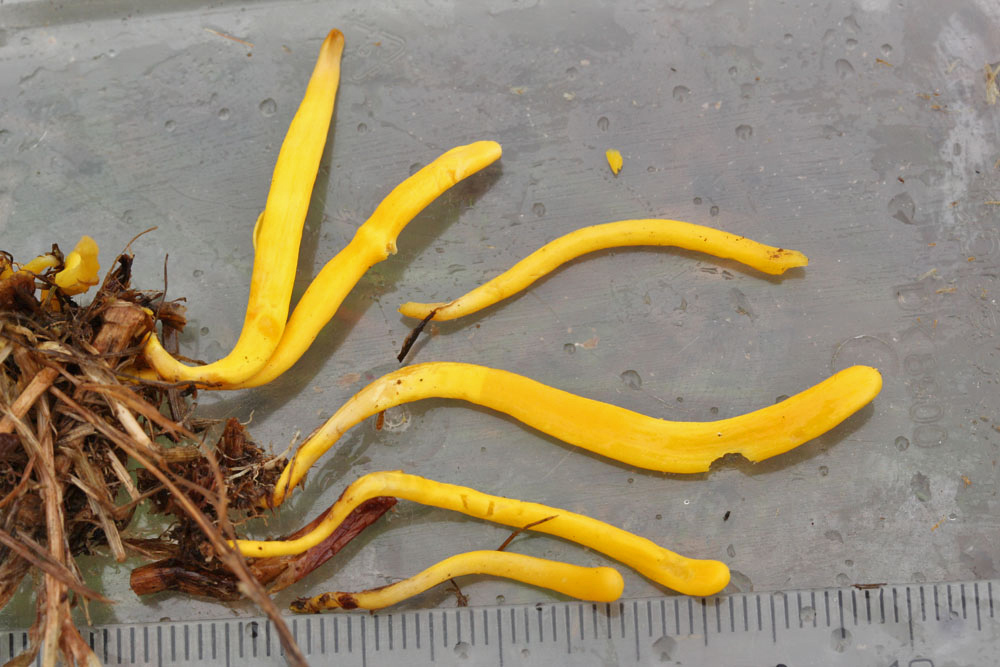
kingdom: Fungi
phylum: Basidiomycota
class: Agaricomycetes
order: Agaricales
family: Clavariaceae
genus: Clavulinopsis
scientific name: Clavulinopsis helvola
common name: orangegul køllesvamp
